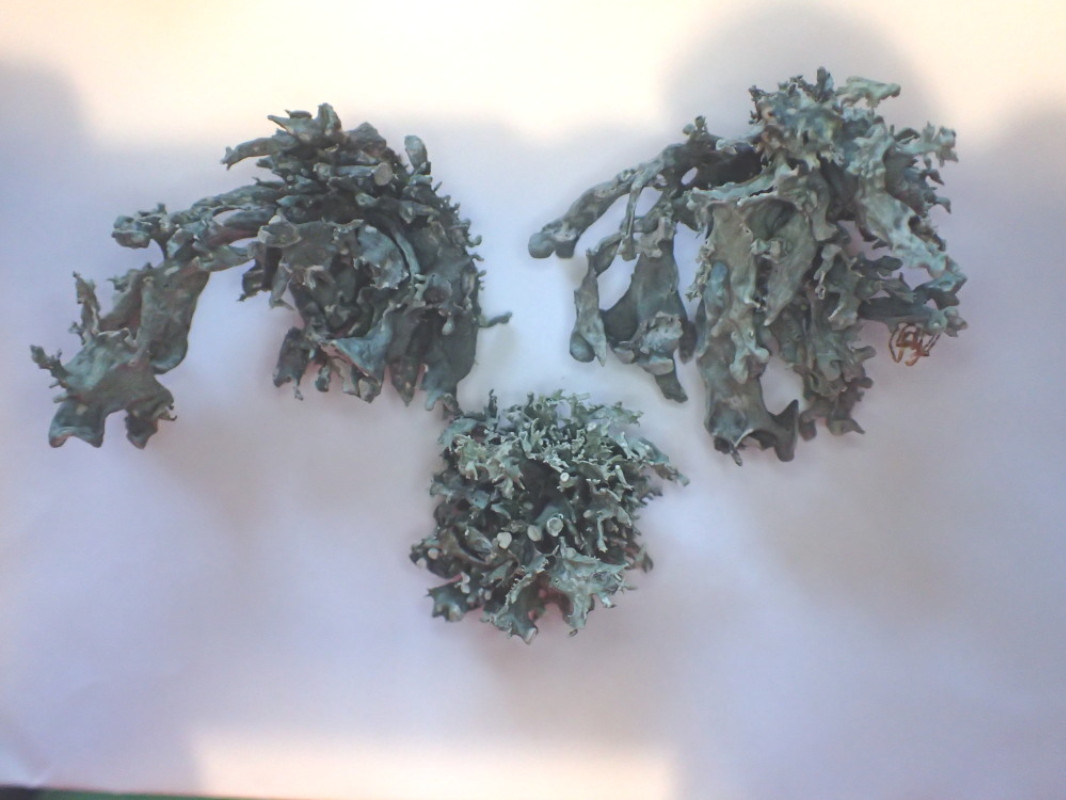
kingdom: Fungi
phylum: Ascomycota
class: Lecanoromycetes
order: Lecanorales
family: Ramalinaceae
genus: Ramalina
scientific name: Ramalina fastigiata
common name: tue-grenlav
